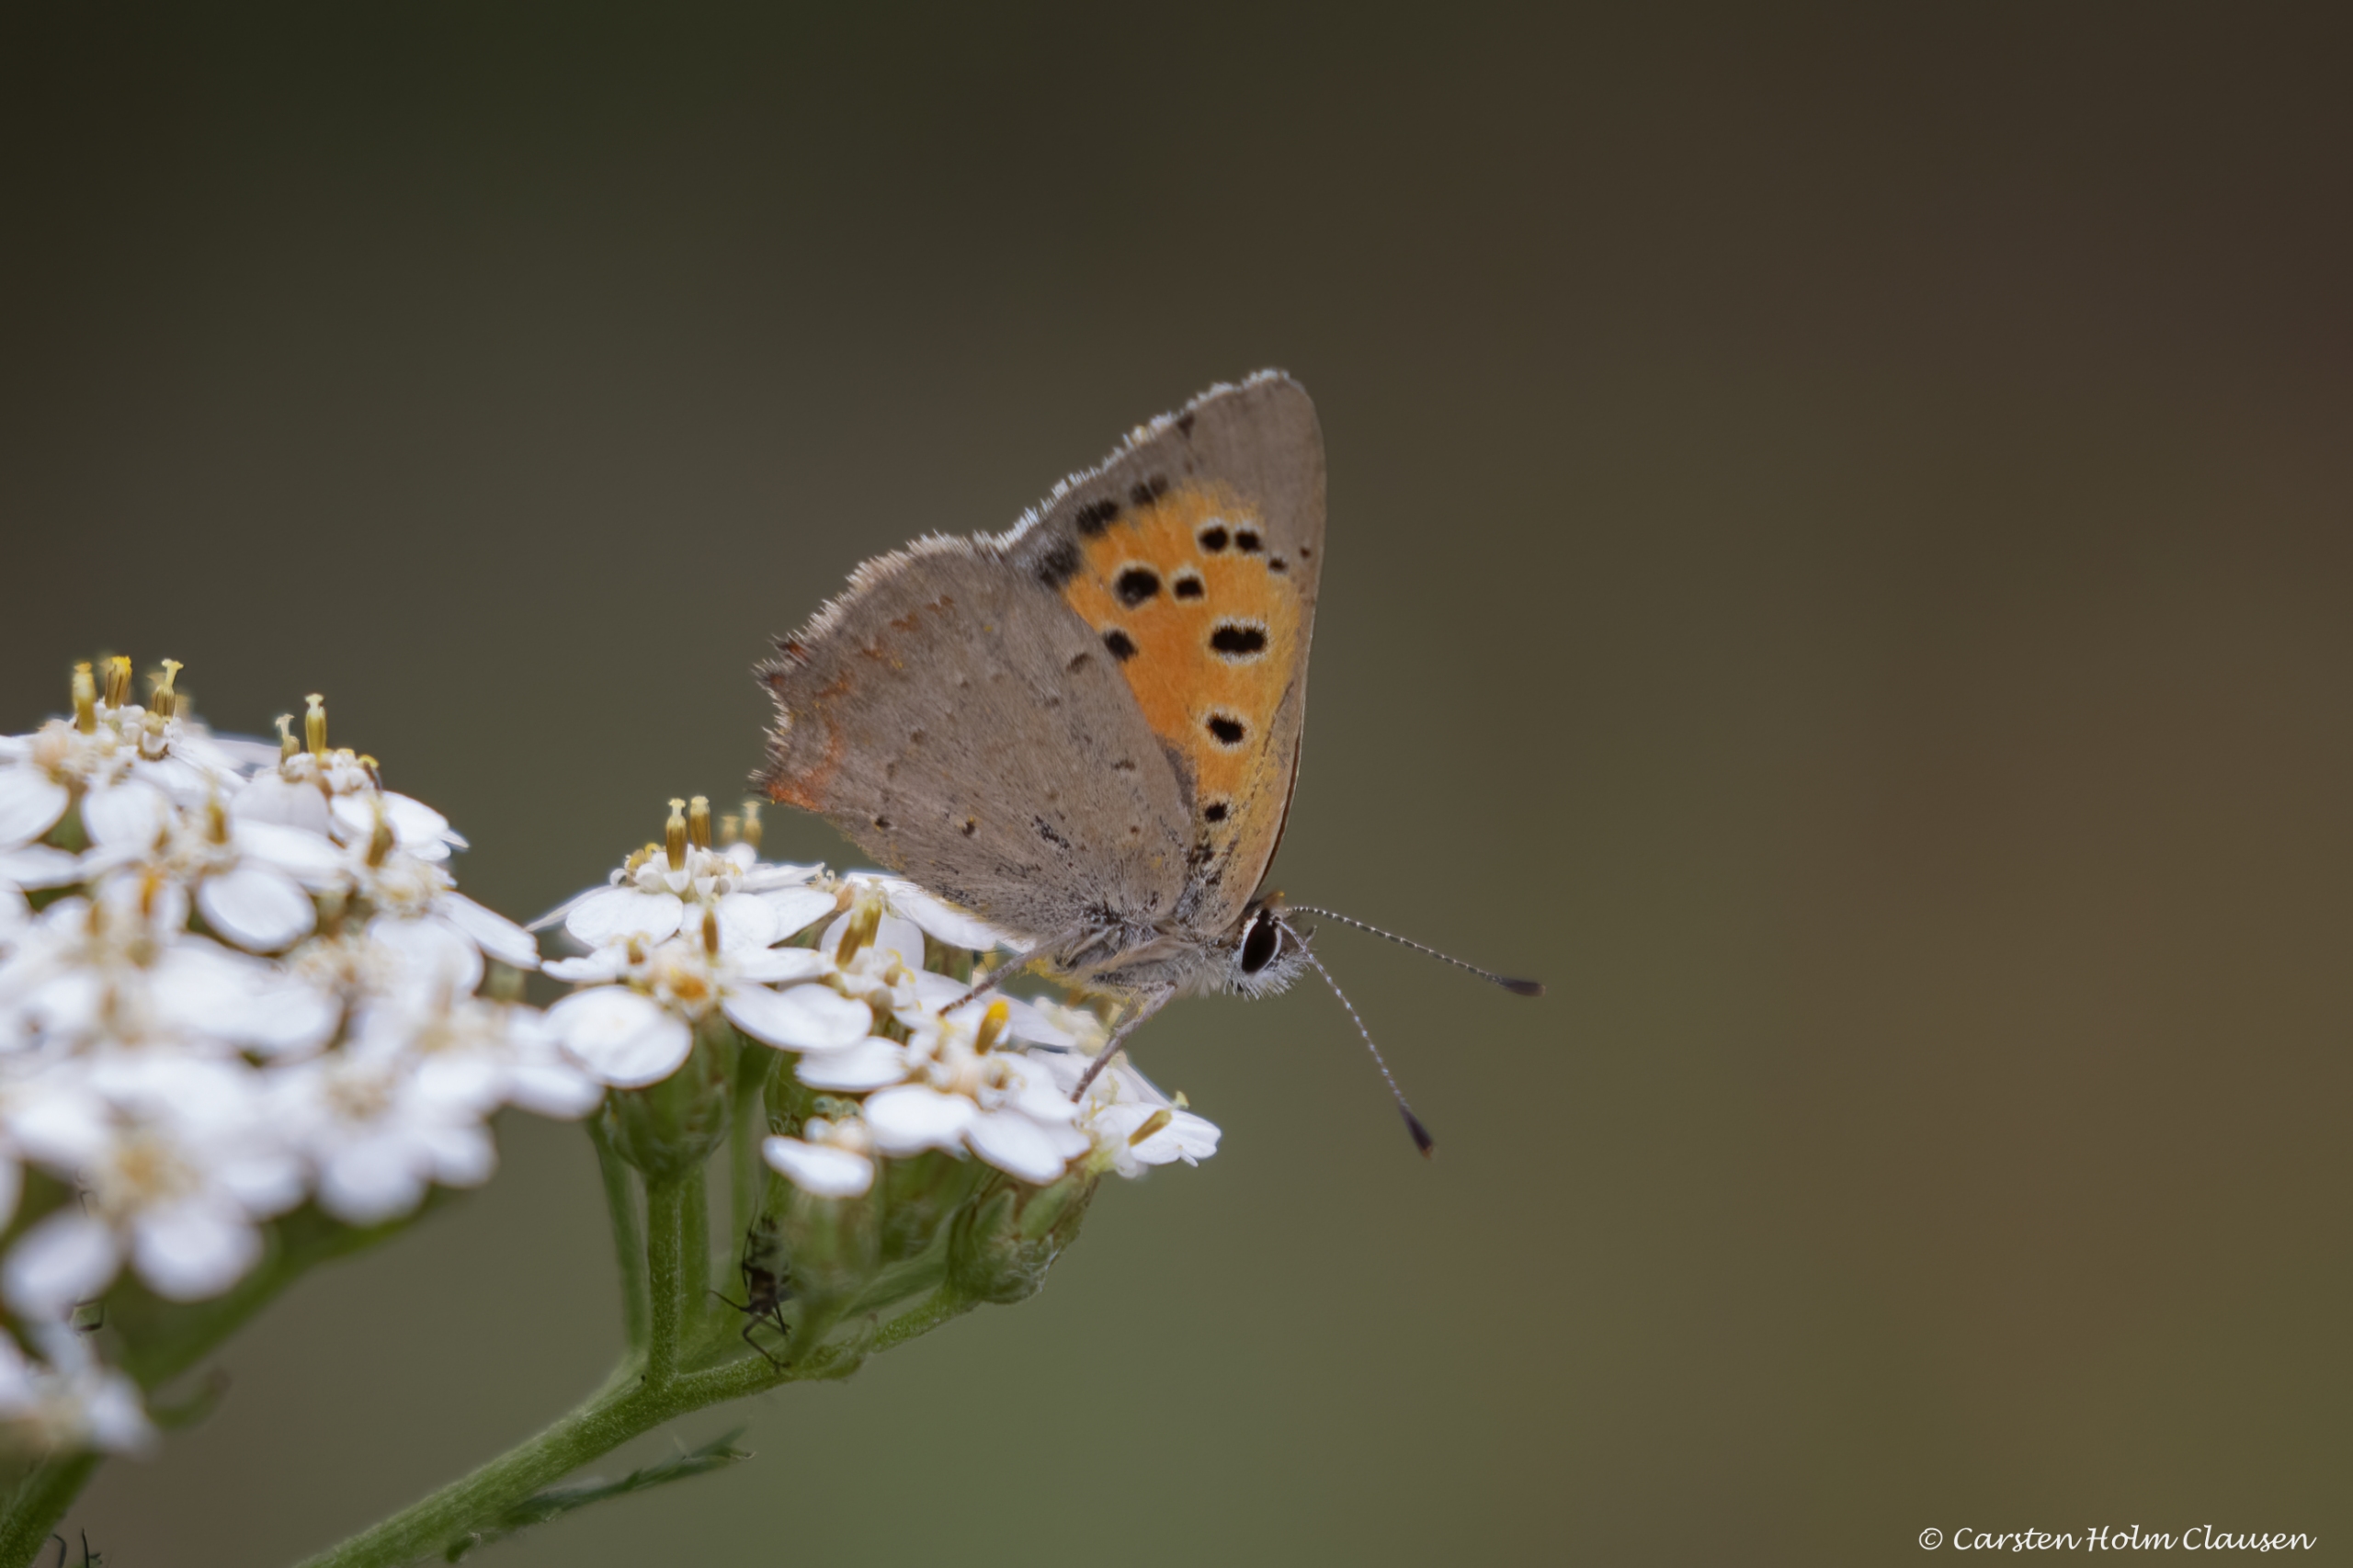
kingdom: Animalia
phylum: Arthropoda
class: Insecta
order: Lepidoptera
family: Lycaenidae
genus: Lycaena
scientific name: Lycaena phlaeas
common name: Lille ildfugl
